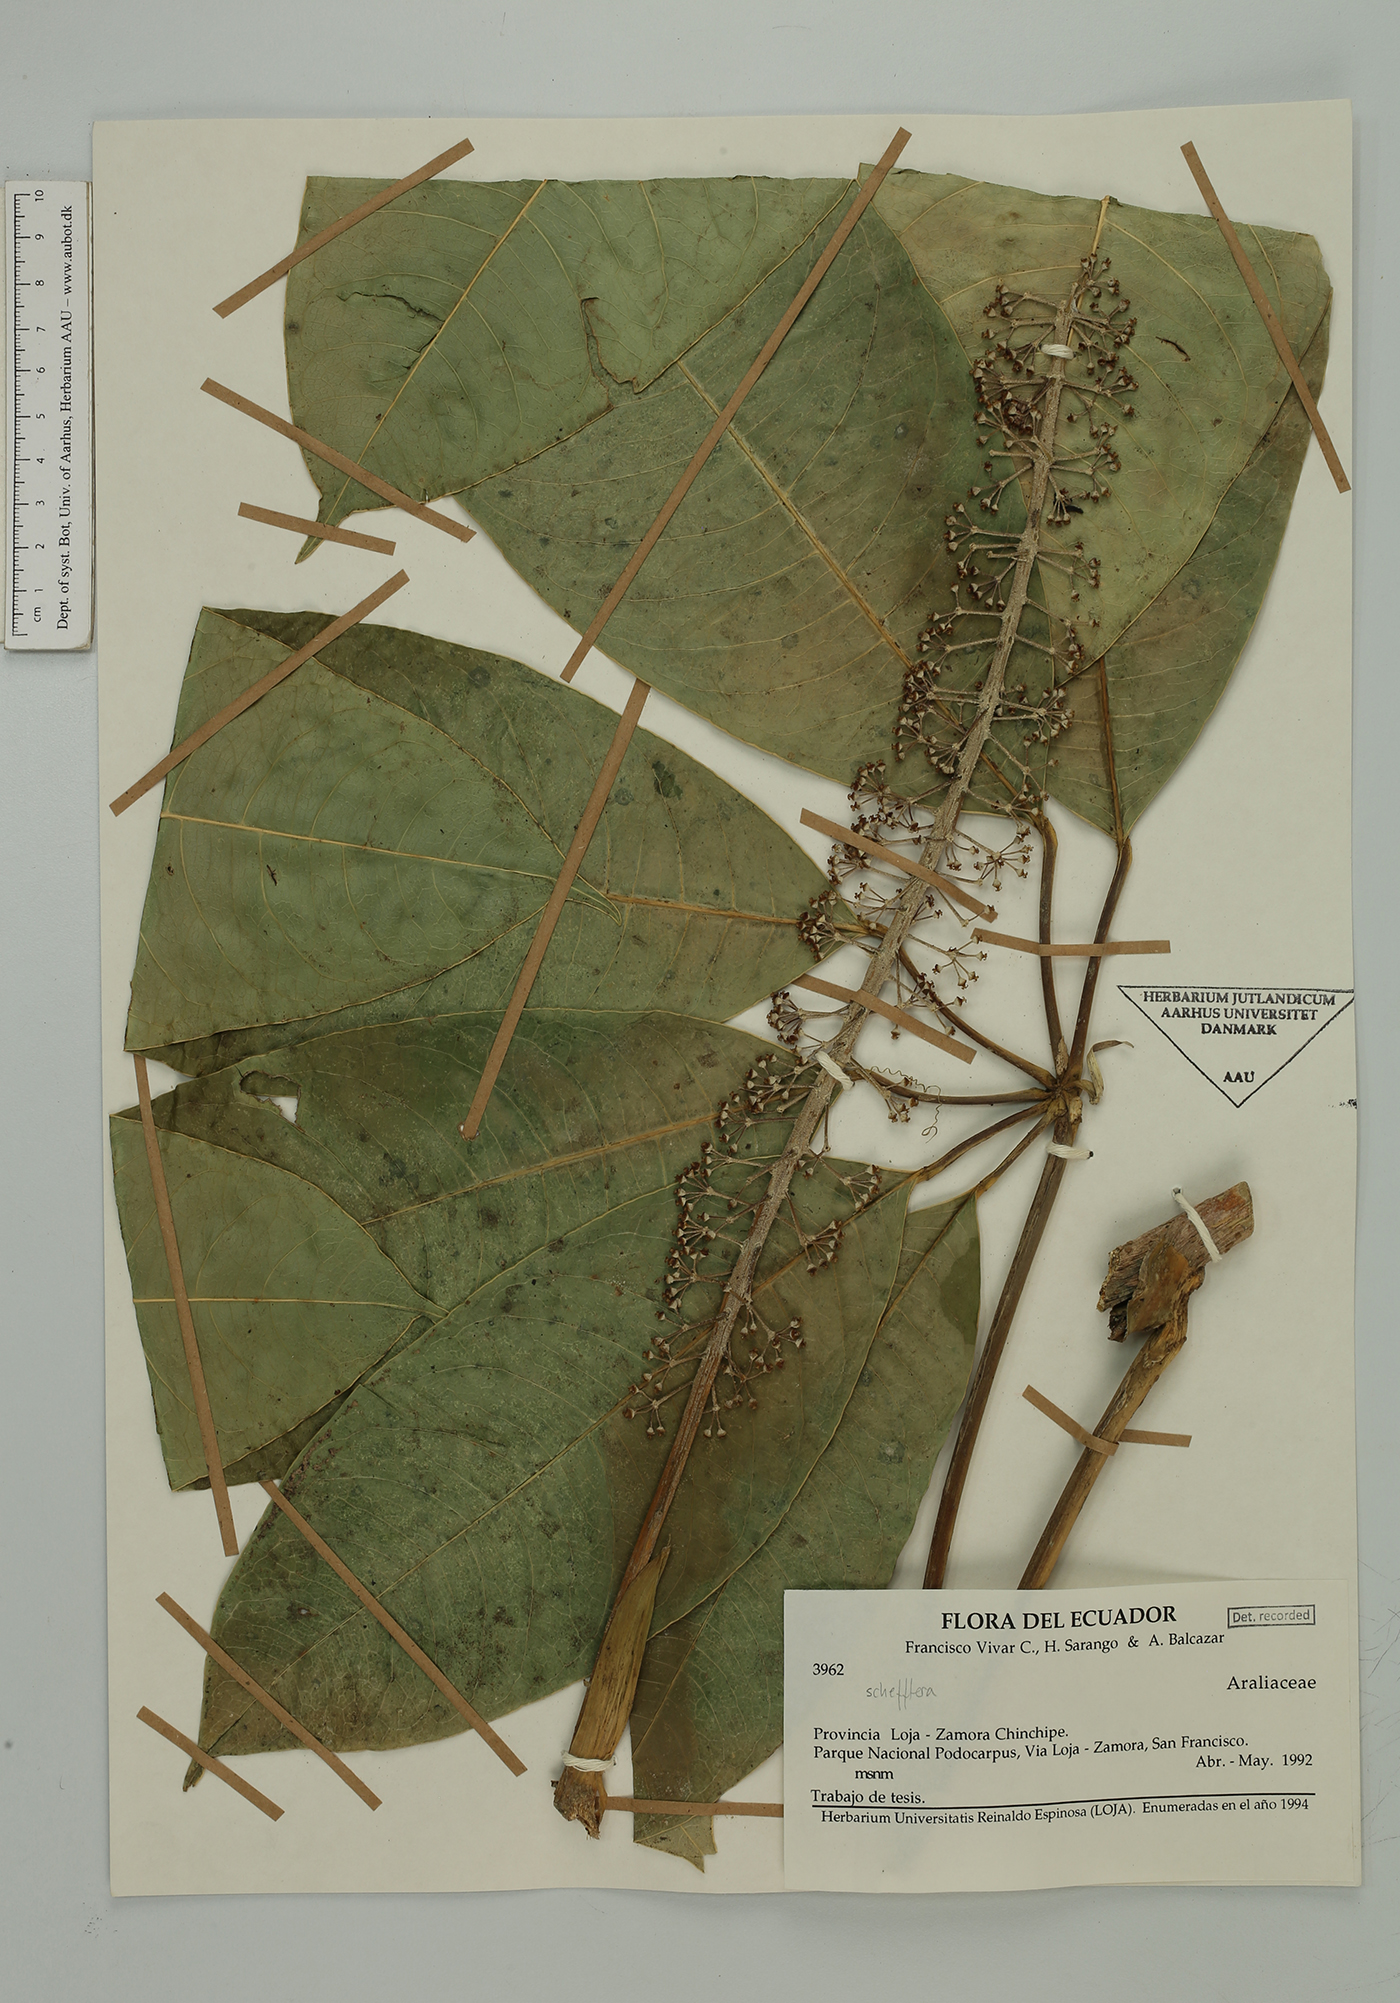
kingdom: Plantae
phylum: Tracheophyta
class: Magnoliopsida
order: Apiales
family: Araliaceae
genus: Sciodaphyllum
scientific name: Sciodaphyllum
